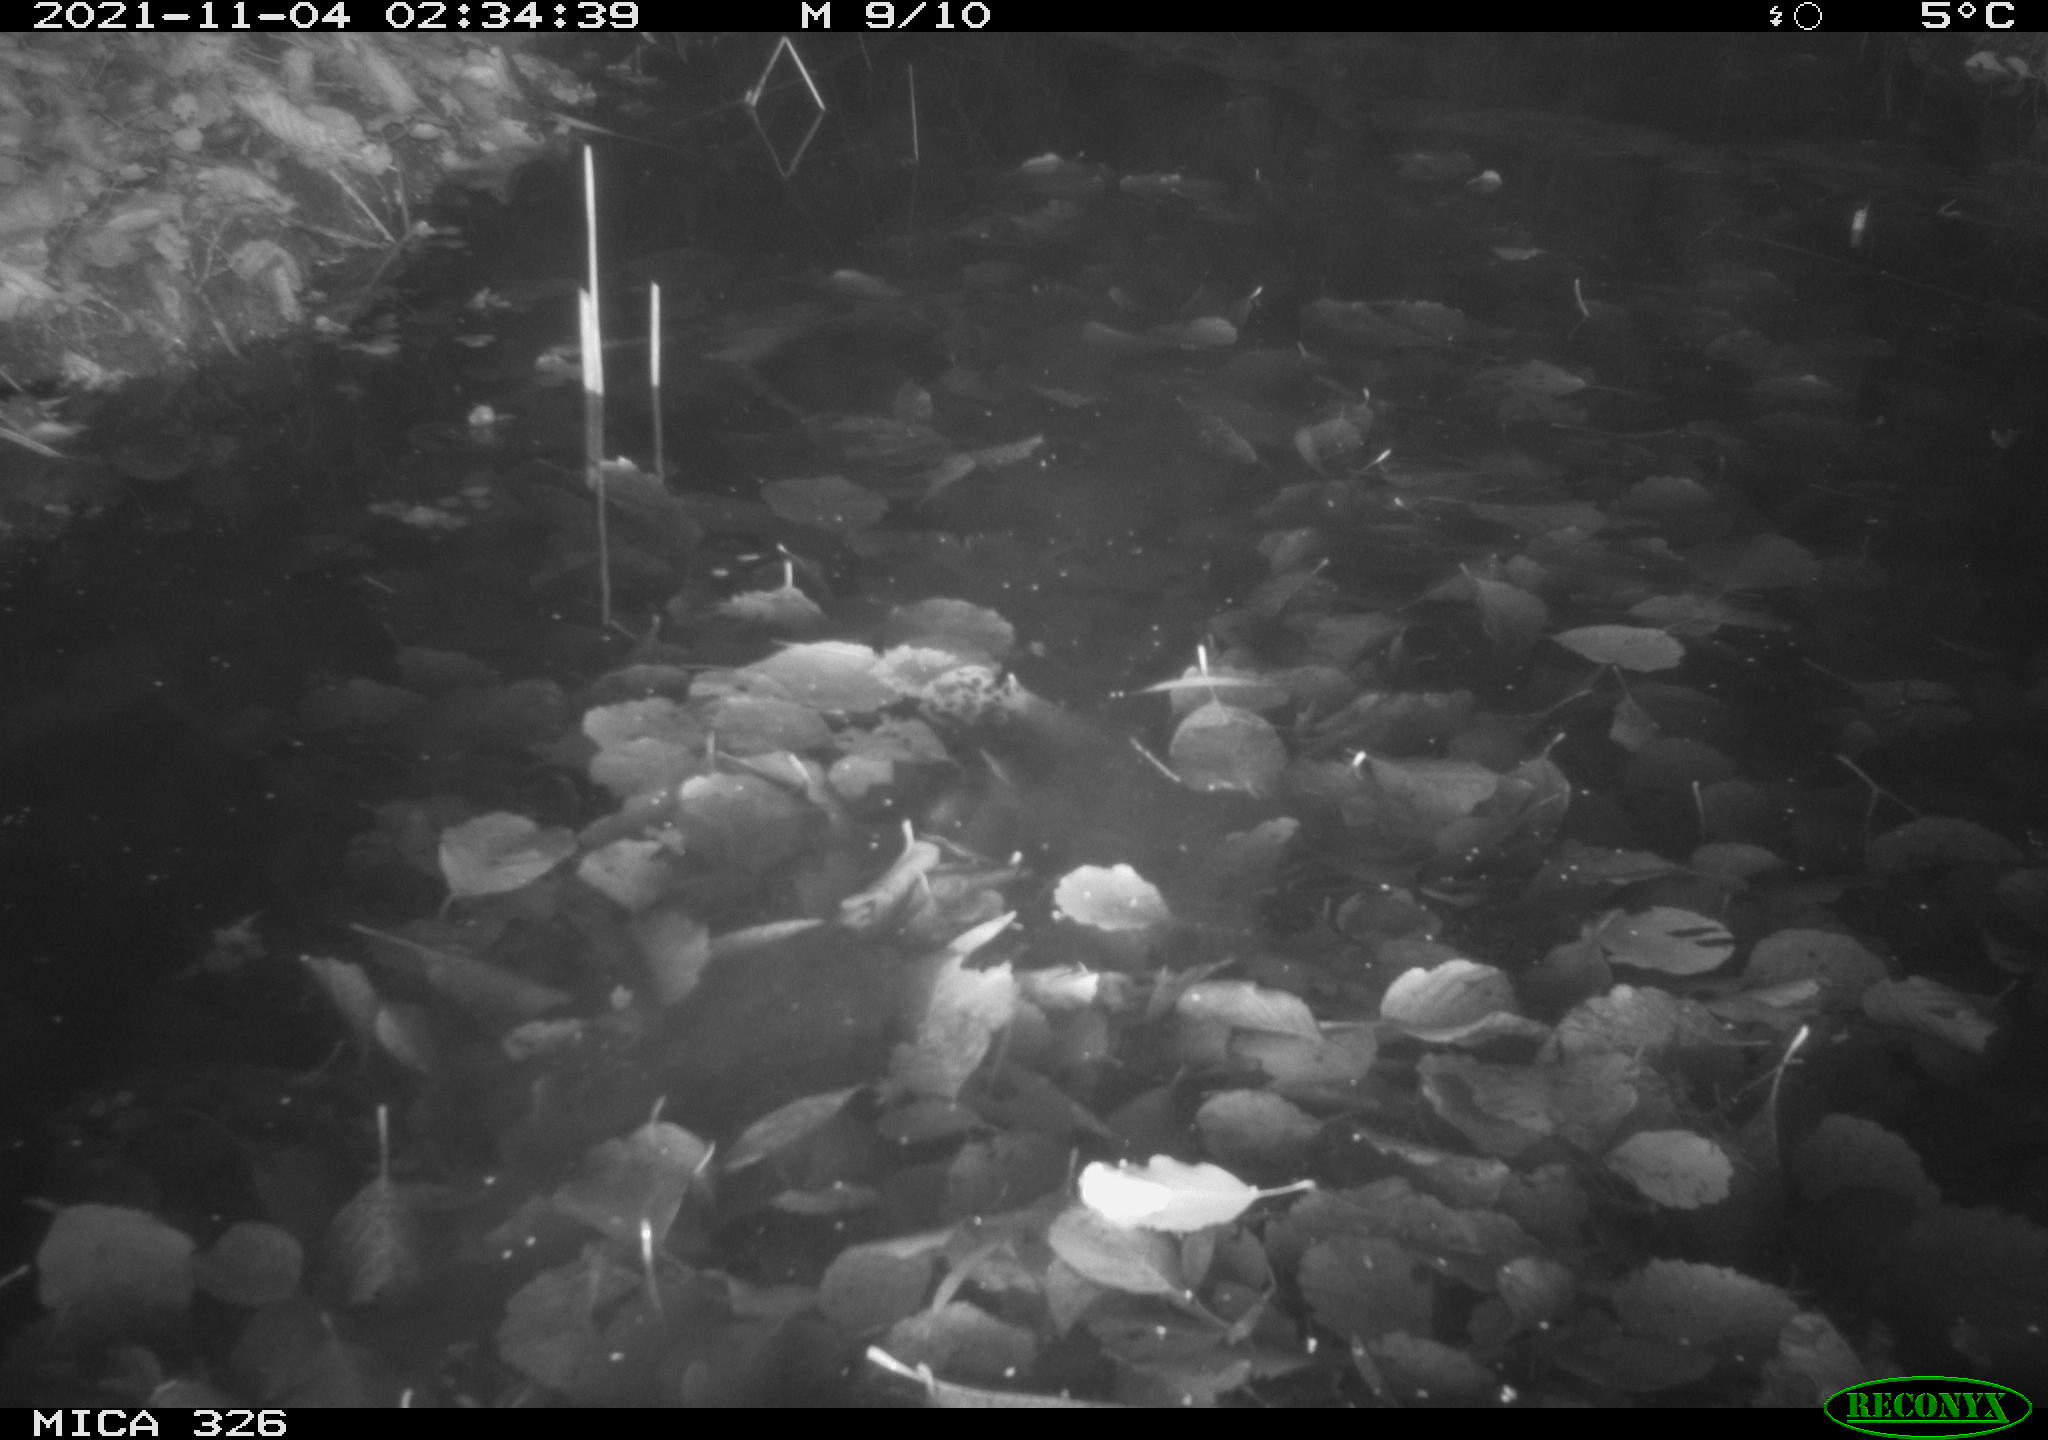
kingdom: Animalia
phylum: Chordata
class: Mammalia
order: Rodentia
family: Myocastoridae
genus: Myocastor
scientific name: Myocastor coypus
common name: Coypu
